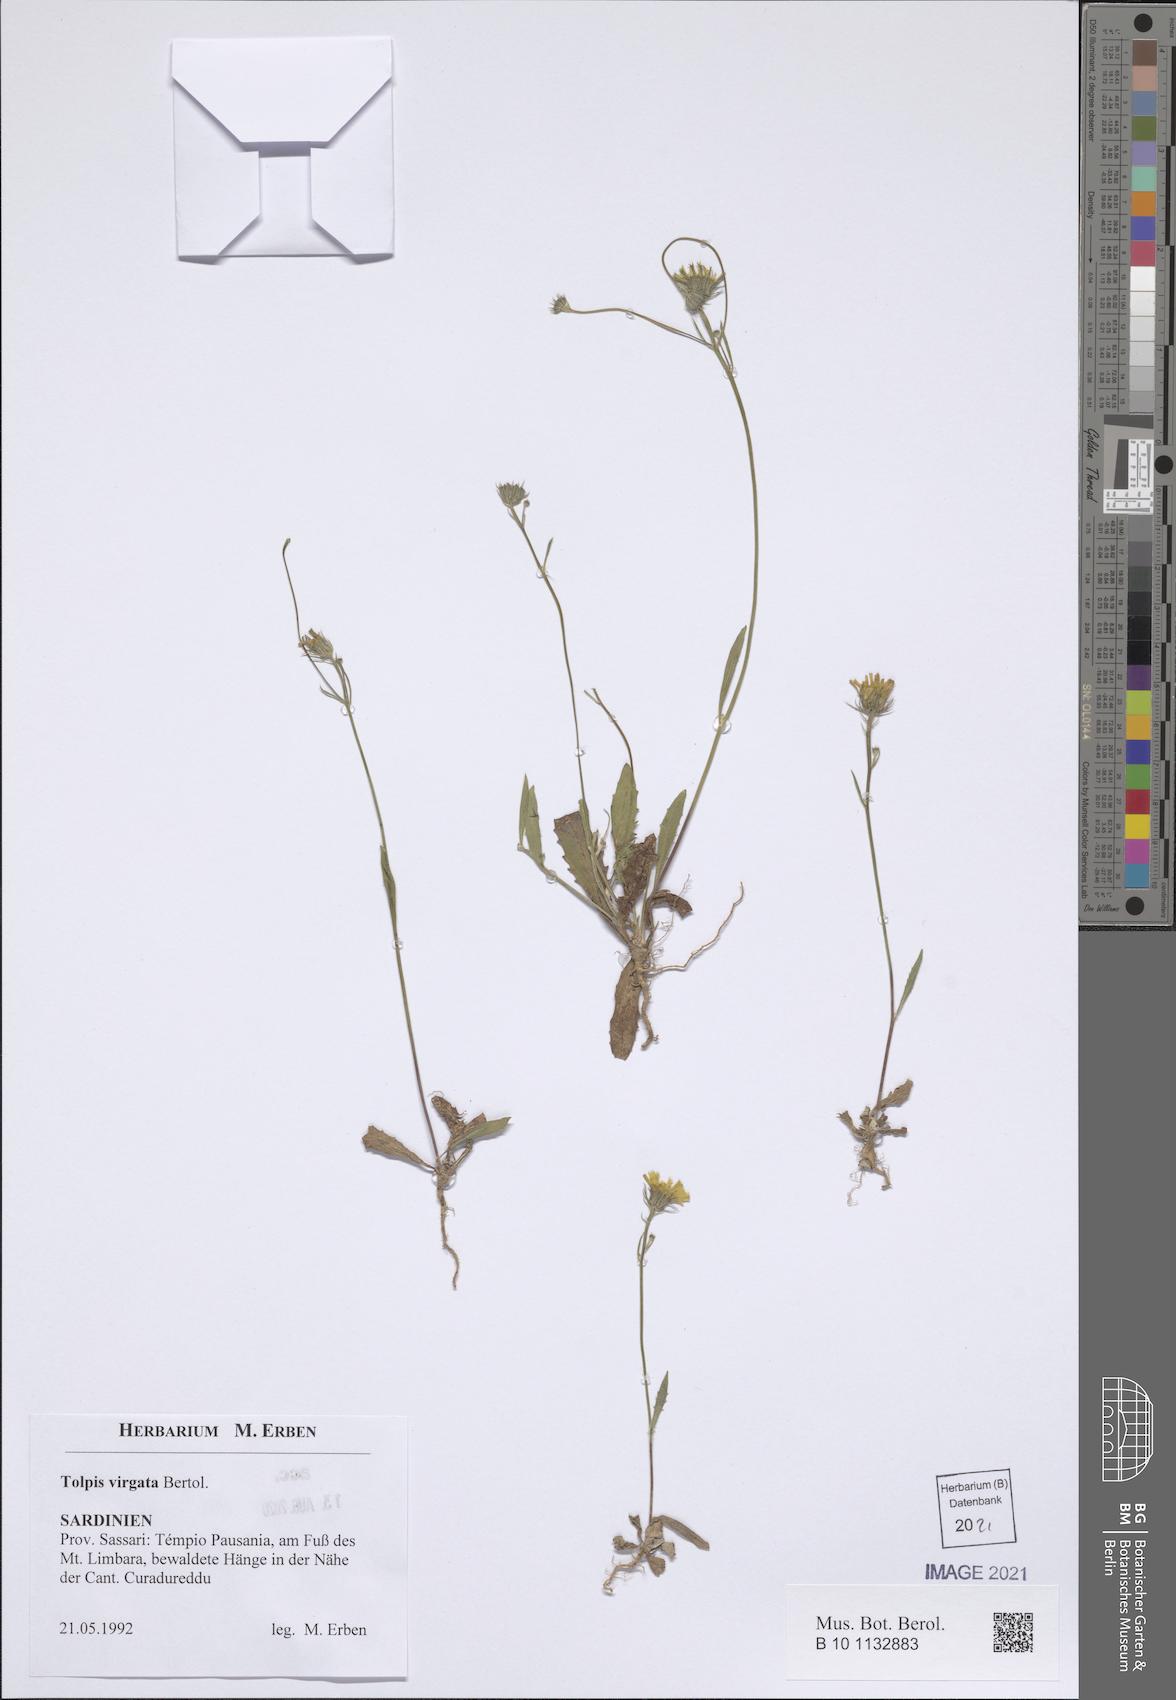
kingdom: Plantae
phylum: Tracheophyta
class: Magnoliopsida
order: Asterales
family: Asteraceae
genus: Tolpis
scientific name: Tolpis virgata
